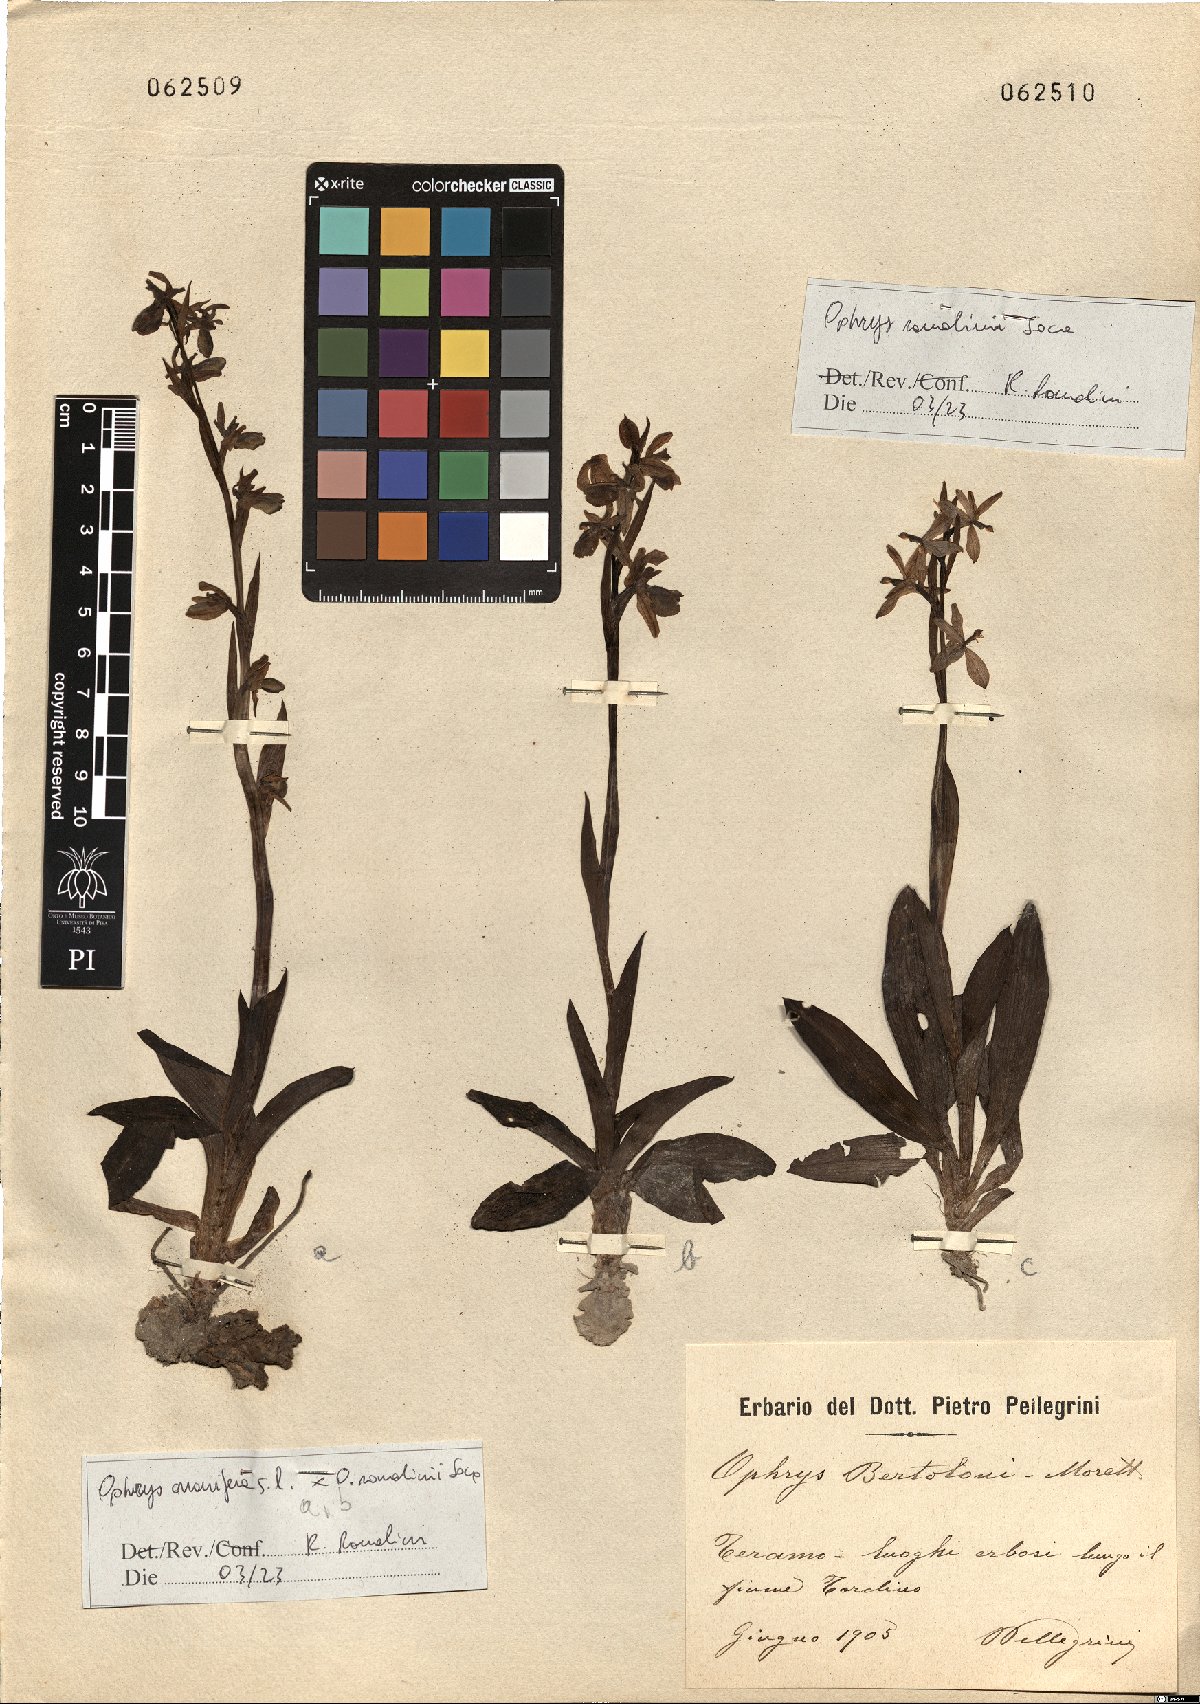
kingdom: Plantae
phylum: Tracheophyta
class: Liliopsida
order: Asparagales
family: Orchidaceae
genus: Ophrys
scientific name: Ophrys bertolonii
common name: Bertoloni's bee orchid
